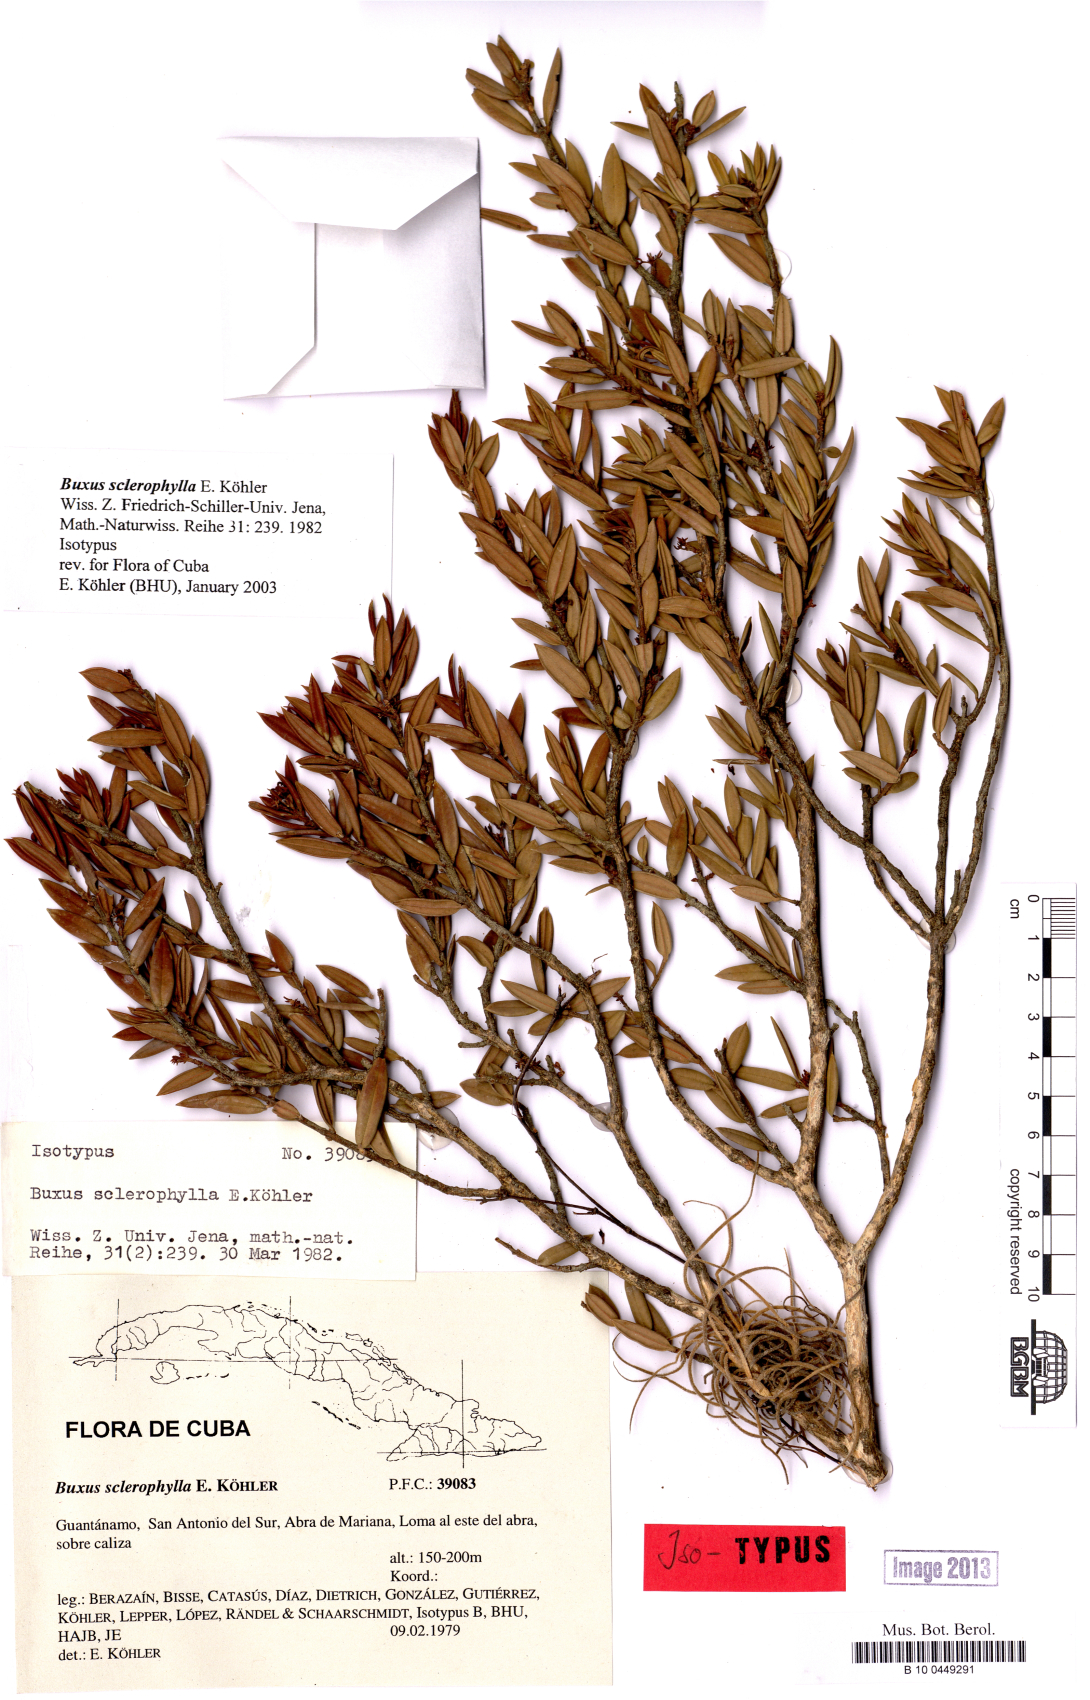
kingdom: Plantae
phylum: Tracheophyta
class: Magnoliopsida
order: Buxales
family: Buxaceae
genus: Buxus
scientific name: Buxus sclerophylla
